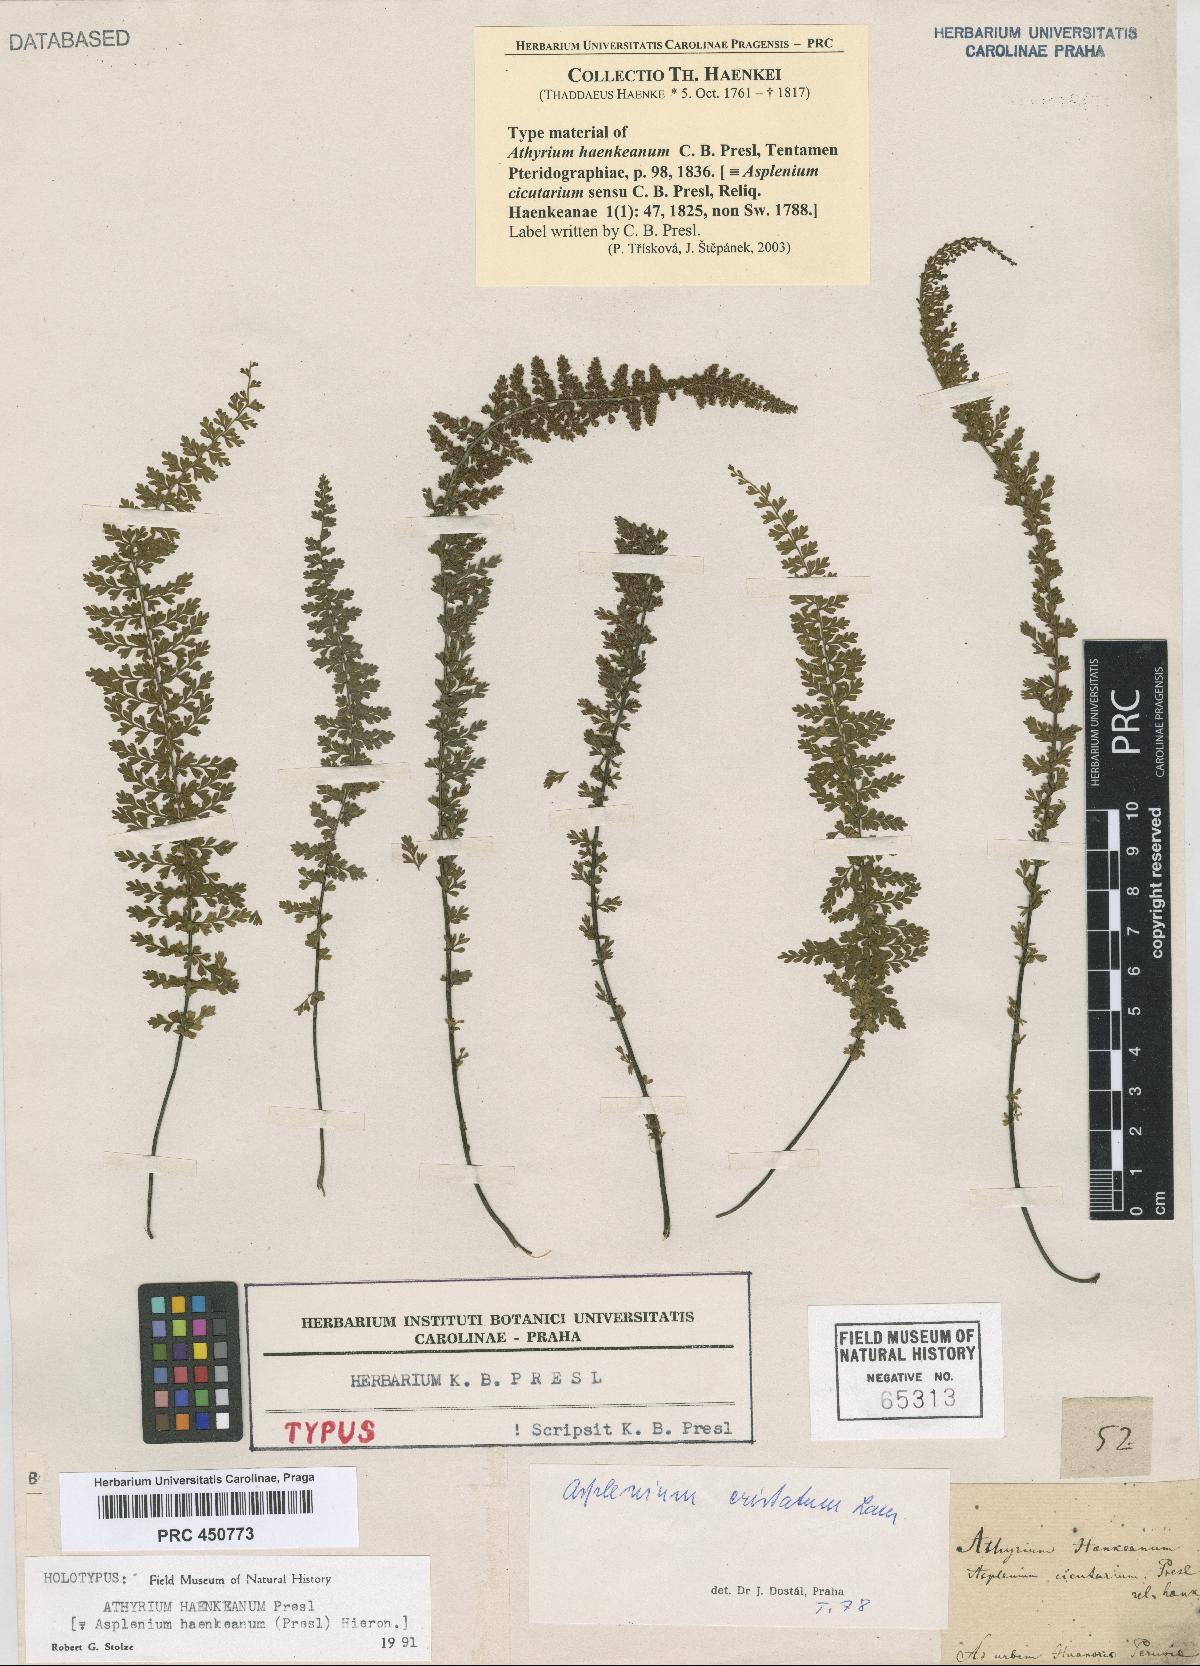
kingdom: Plantae
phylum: Tracheophyta
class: Polypodiopsida
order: Polypodiales
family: Aspleniaceae
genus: Asplenium
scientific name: Asplenium haenkeanum
